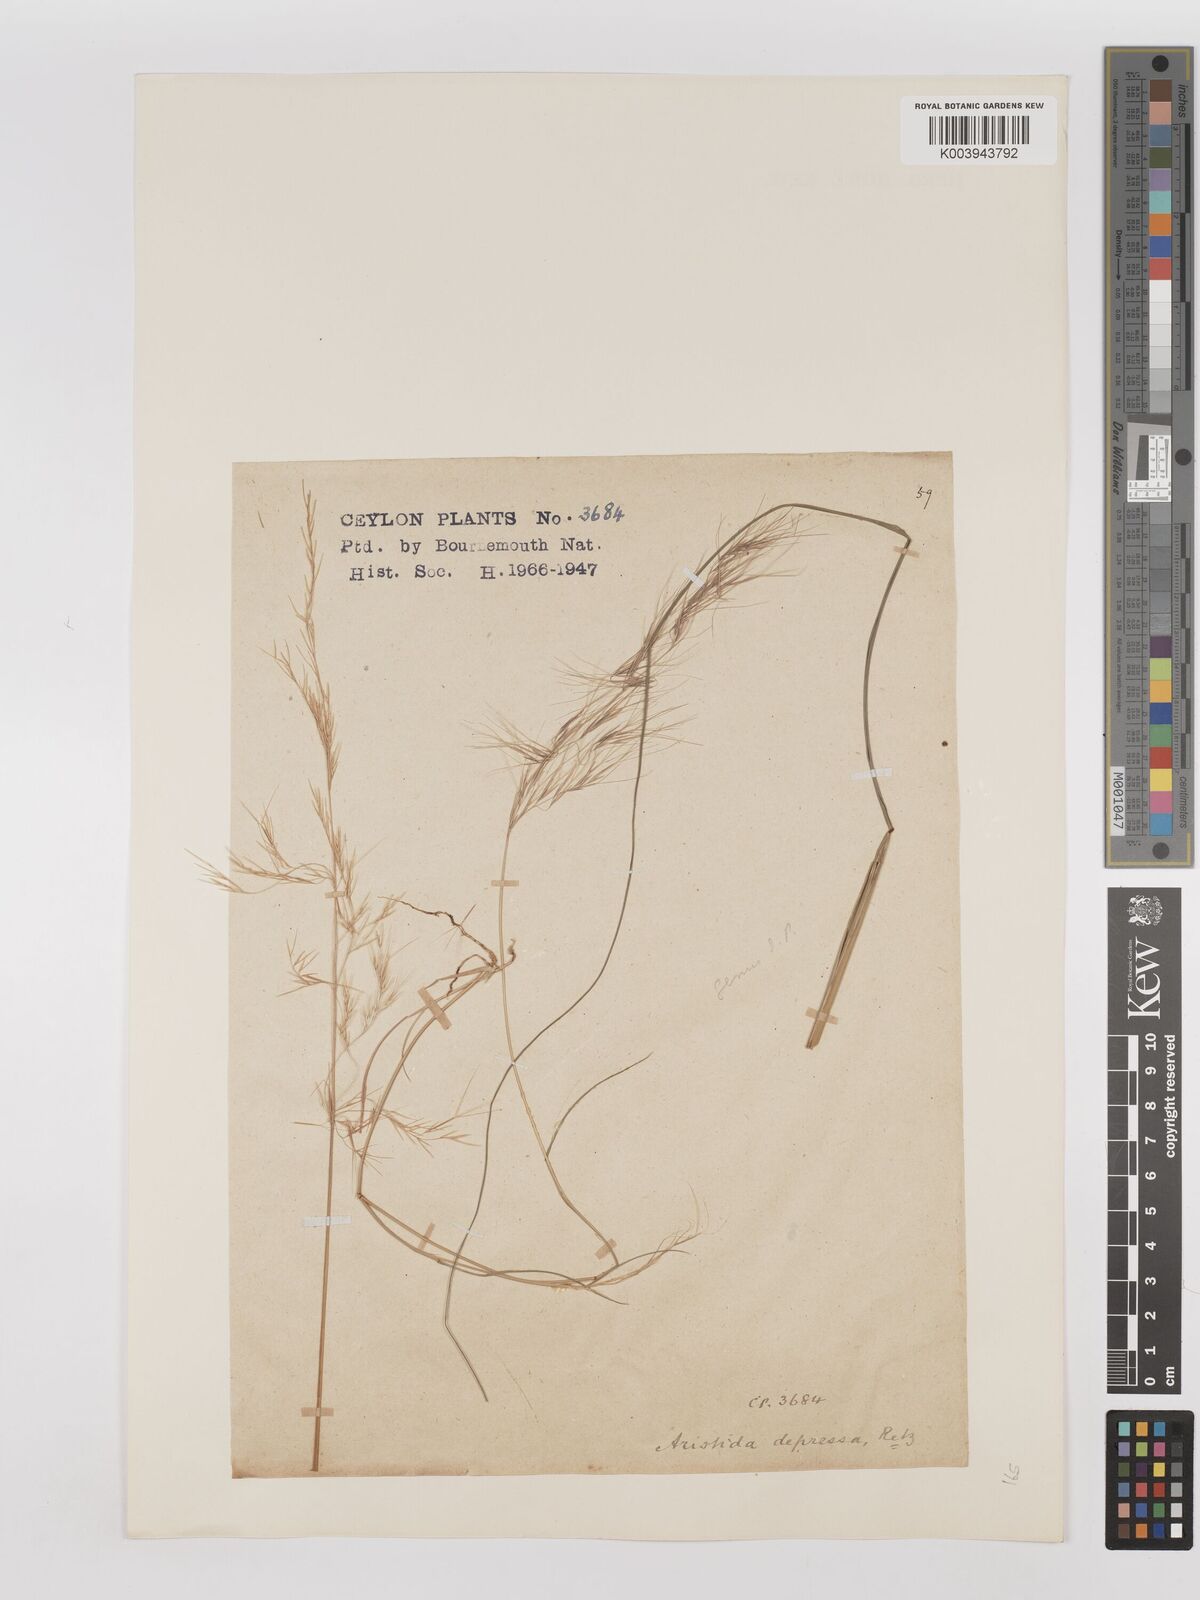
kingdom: Plantae
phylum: Tracheophyta
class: Liliopsida
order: Poales
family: Poaceae
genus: Aristida
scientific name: Aristida adscensionis
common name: Sixweeks threeawn
